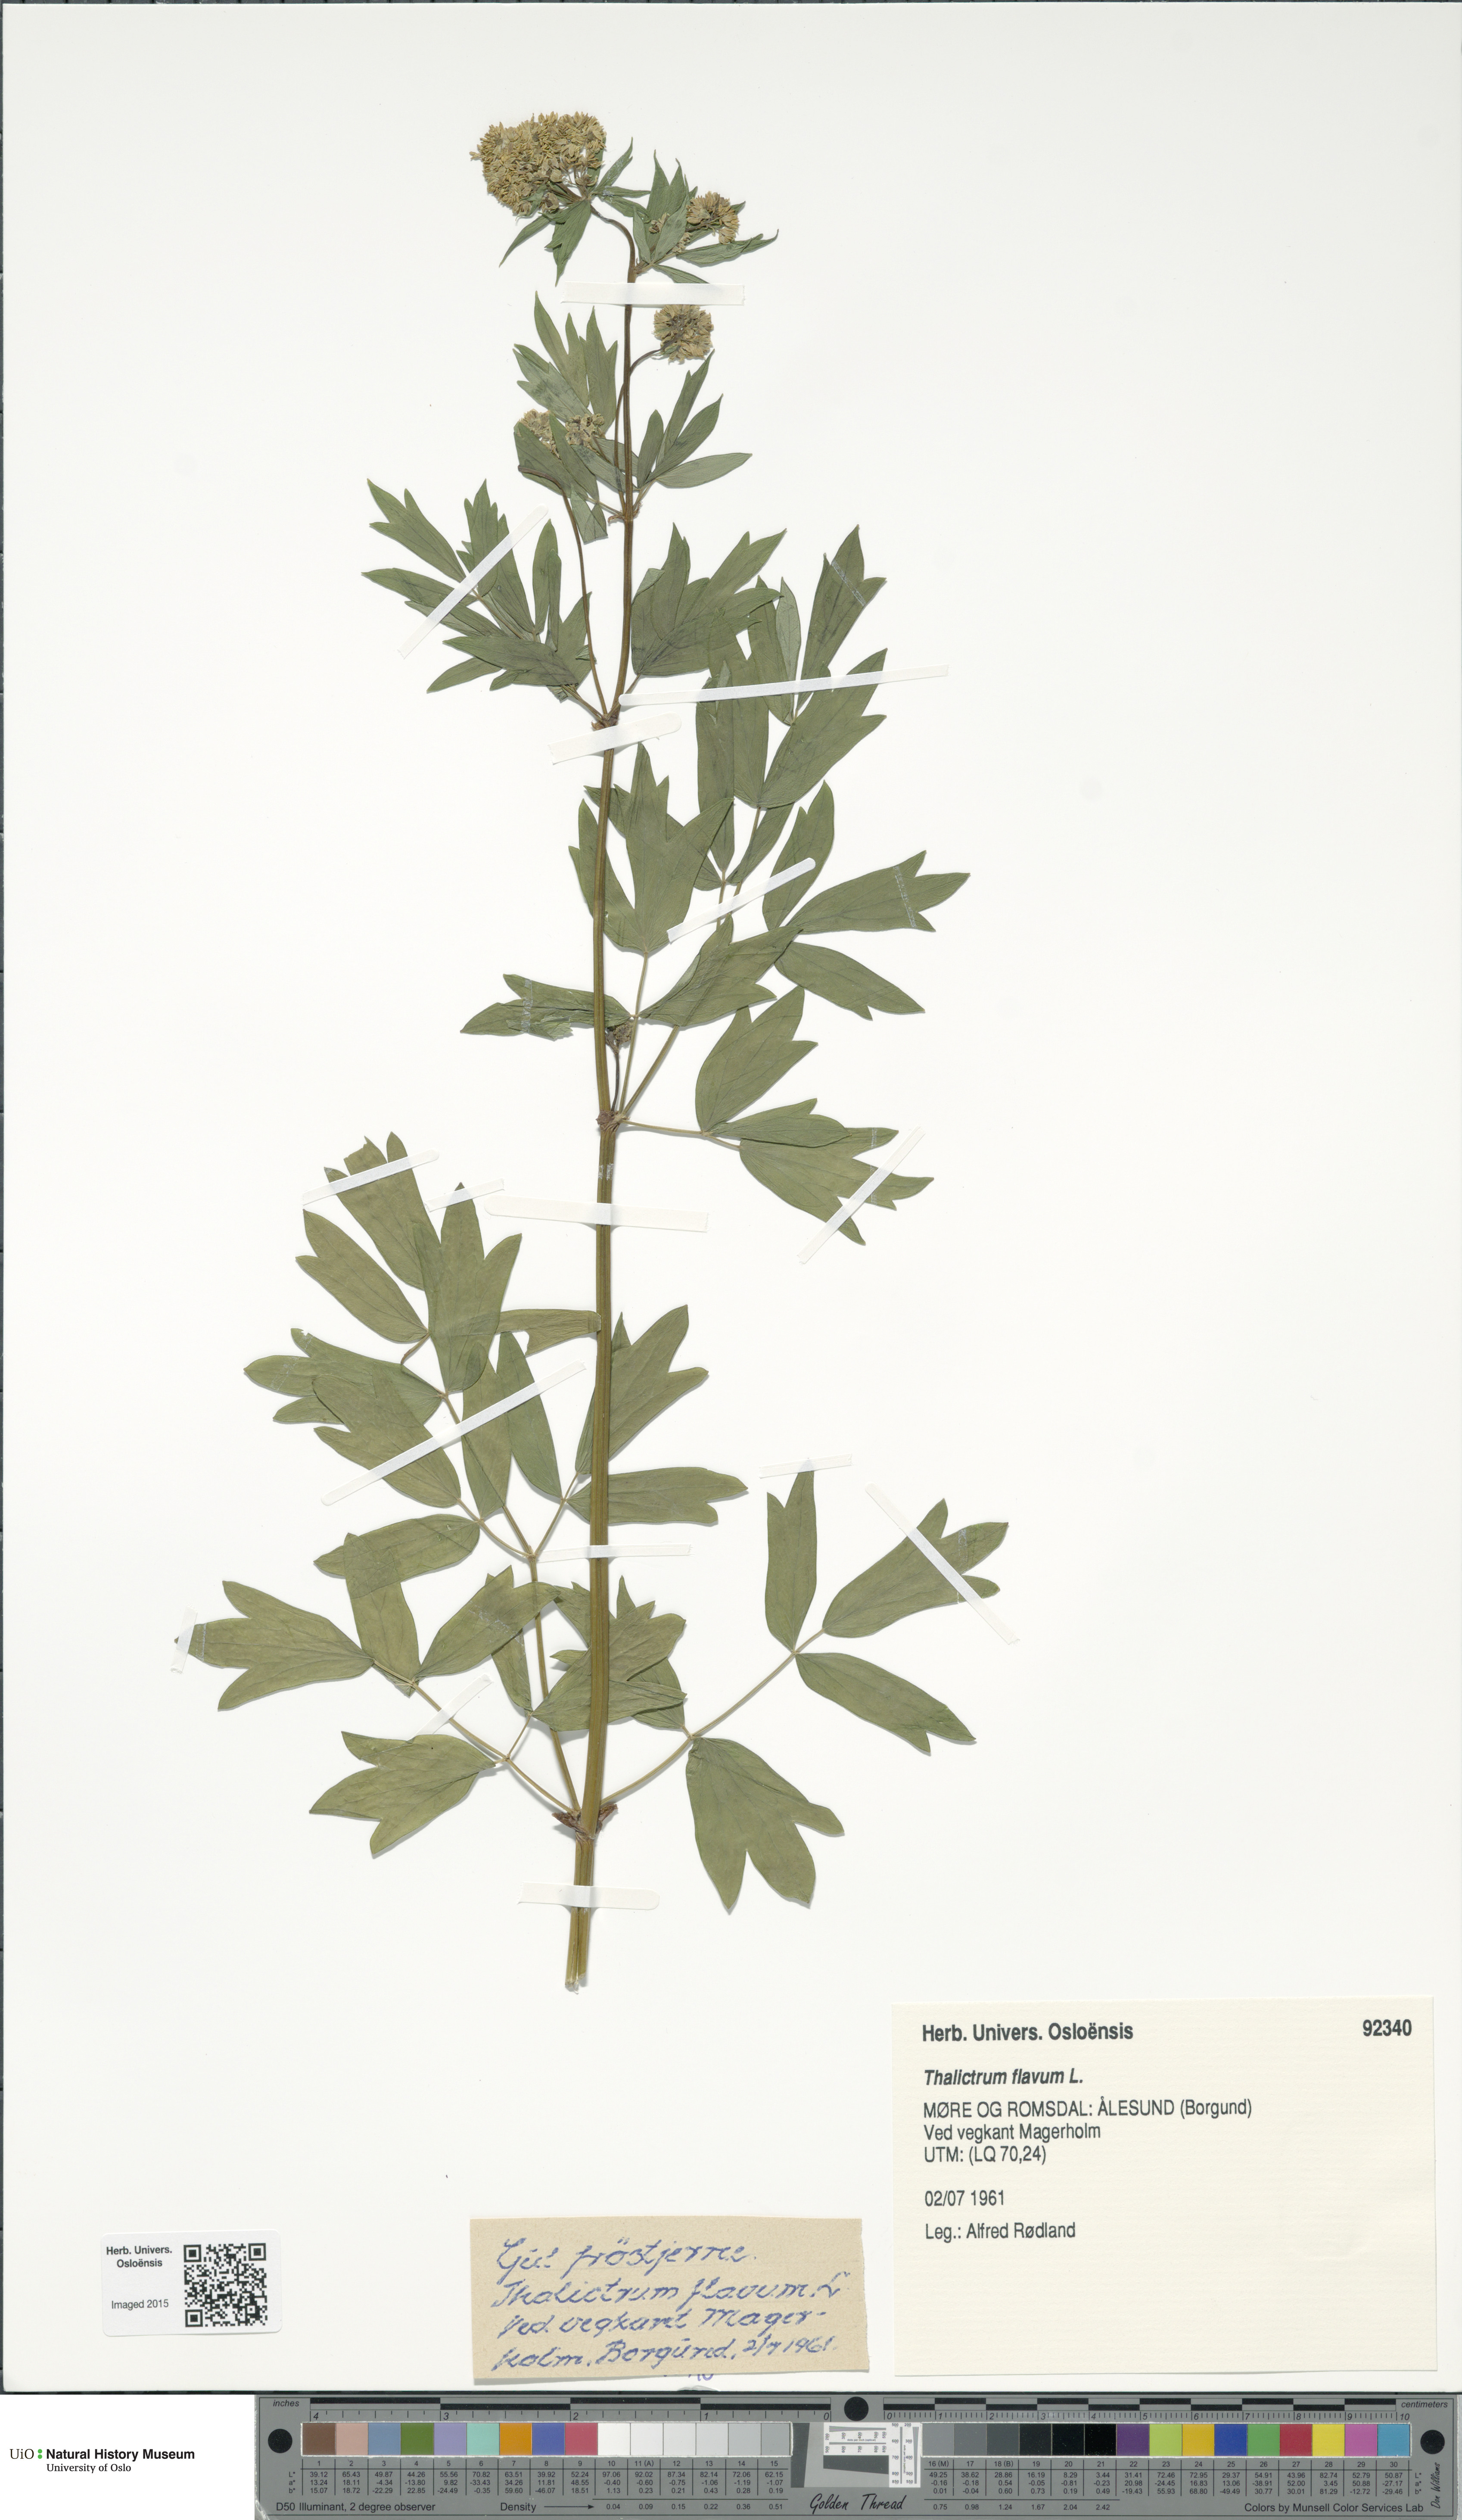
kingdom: Plantae
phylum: Tracheophyta
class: Magnoliopsida
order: Ranunculales
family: Ranunculaceae
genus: Thalictrum
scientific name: Thalictrum flavum
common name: Common meadow-rue
